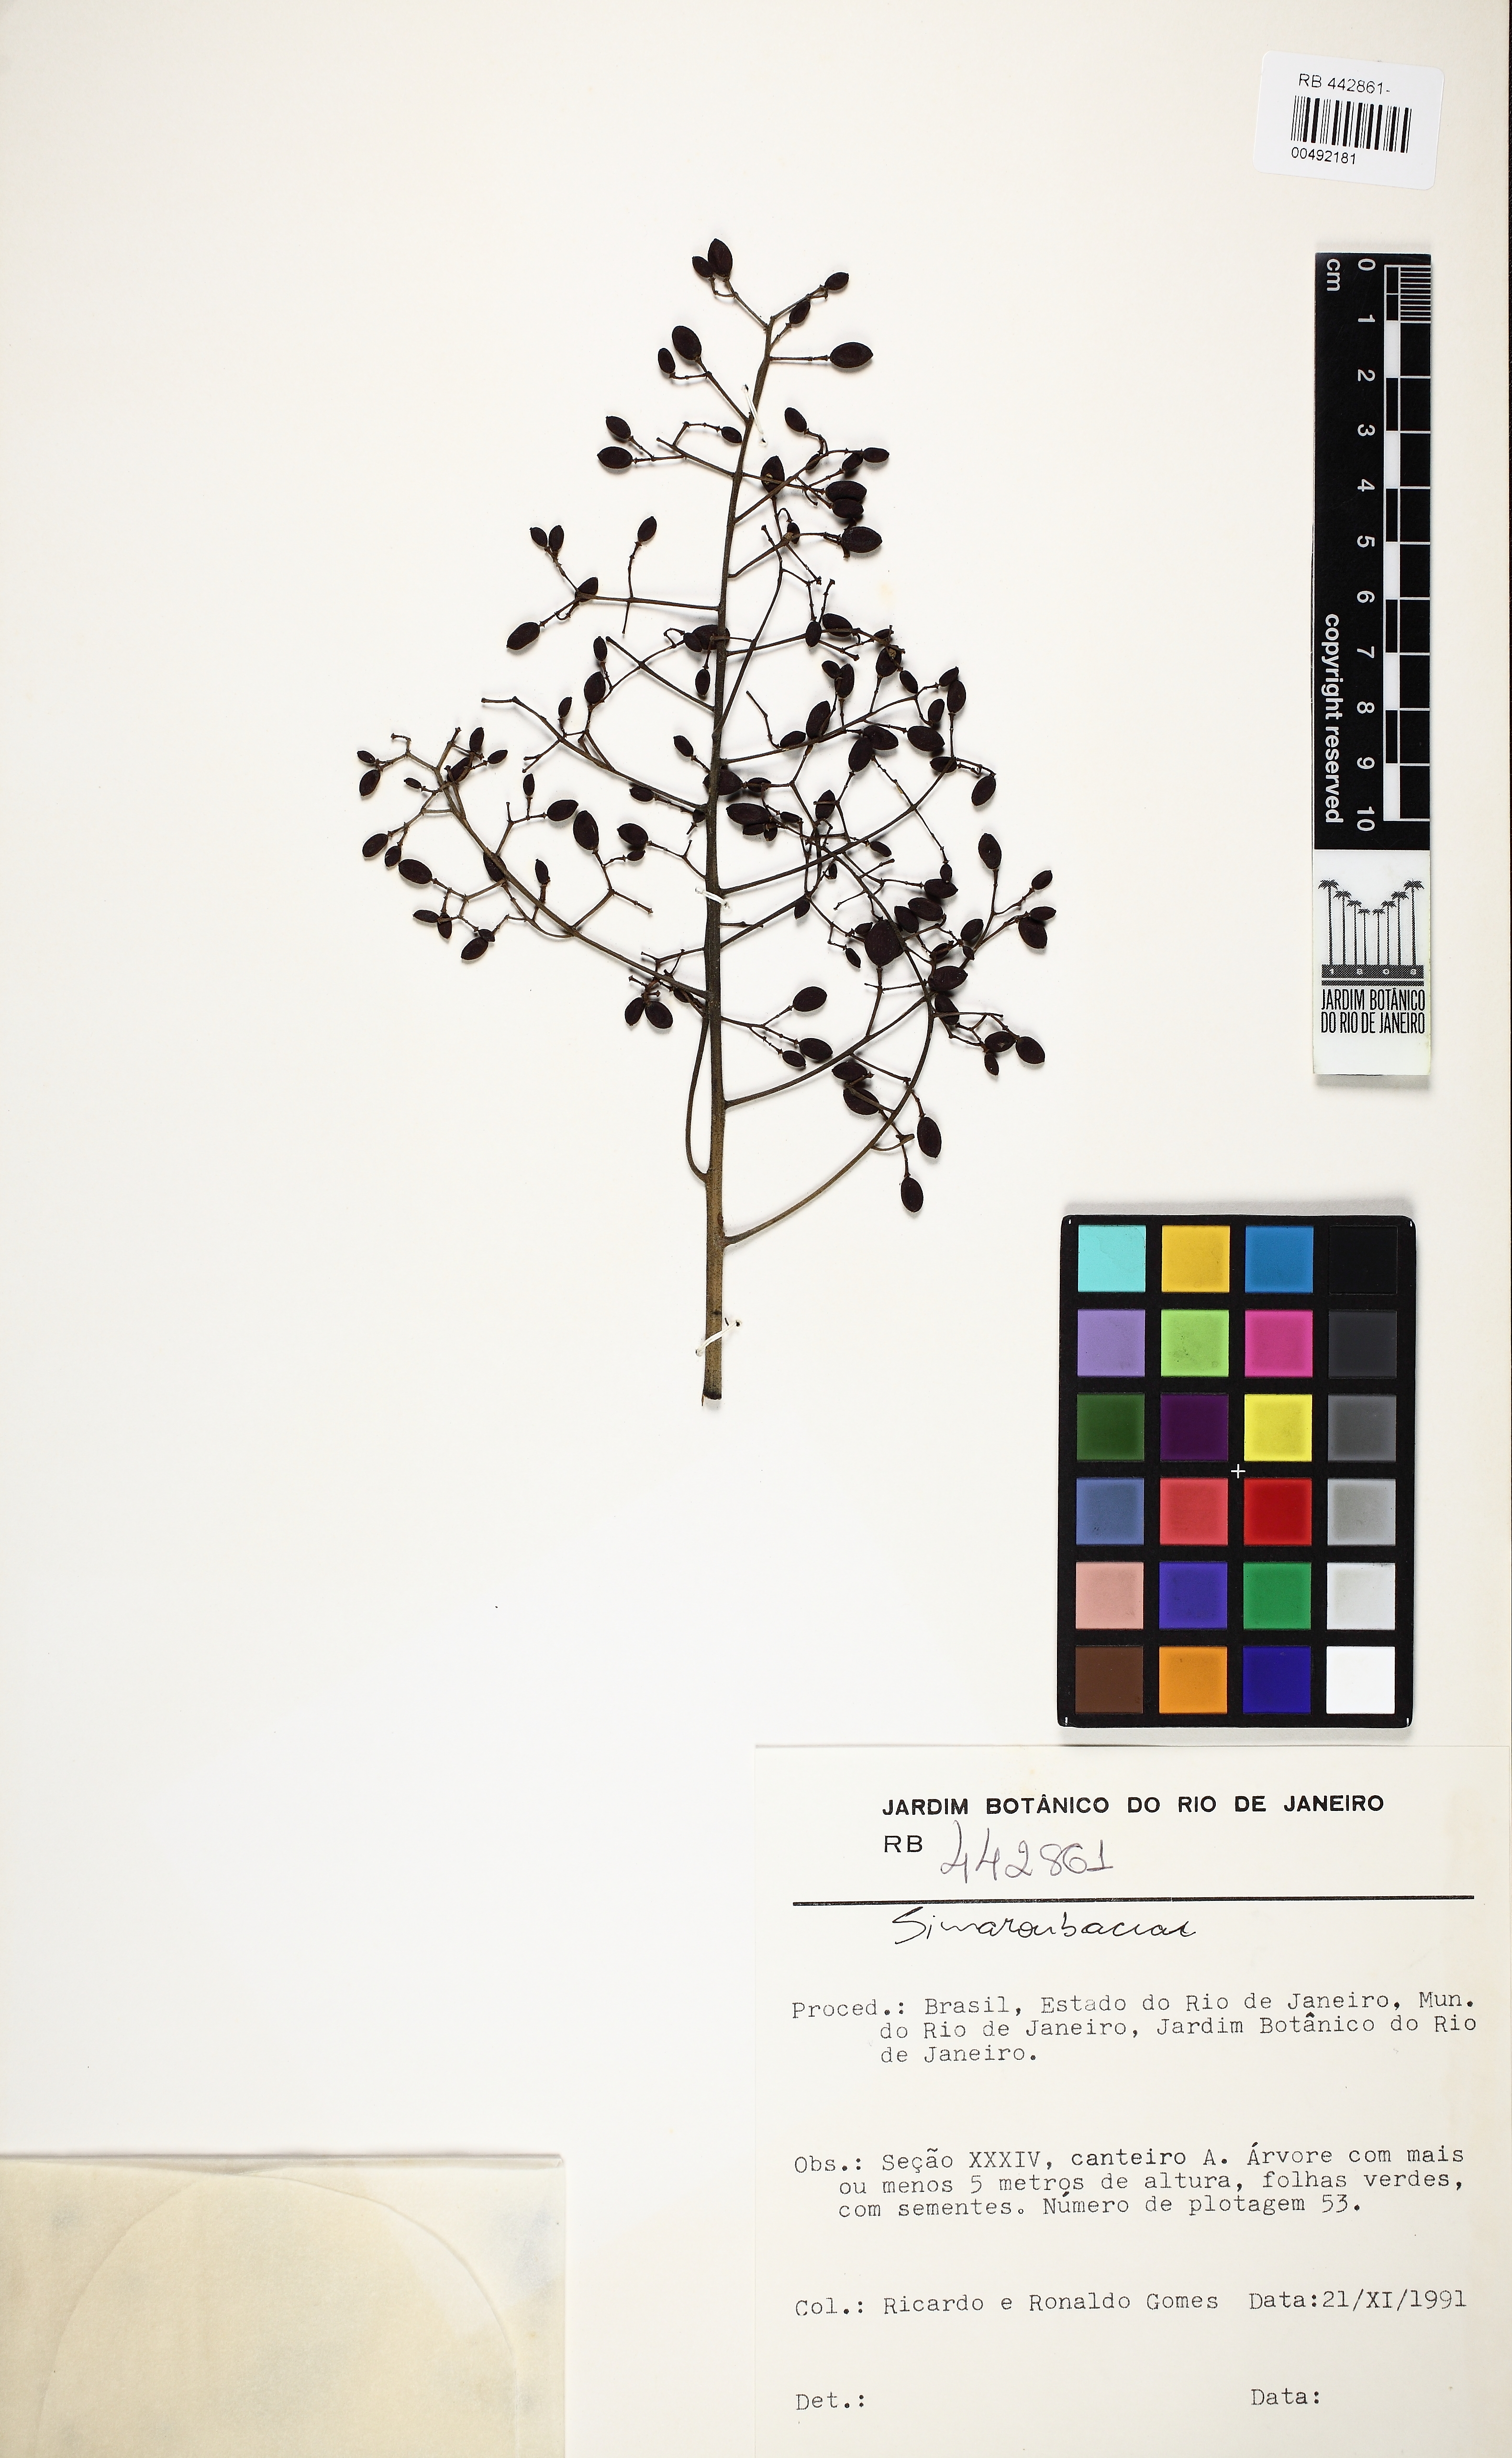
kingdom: Plantae
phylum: Tracheophyta
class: Magnoliopsida
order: Sapindales
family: Simaroubaceae
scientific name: Simaroubaceae
